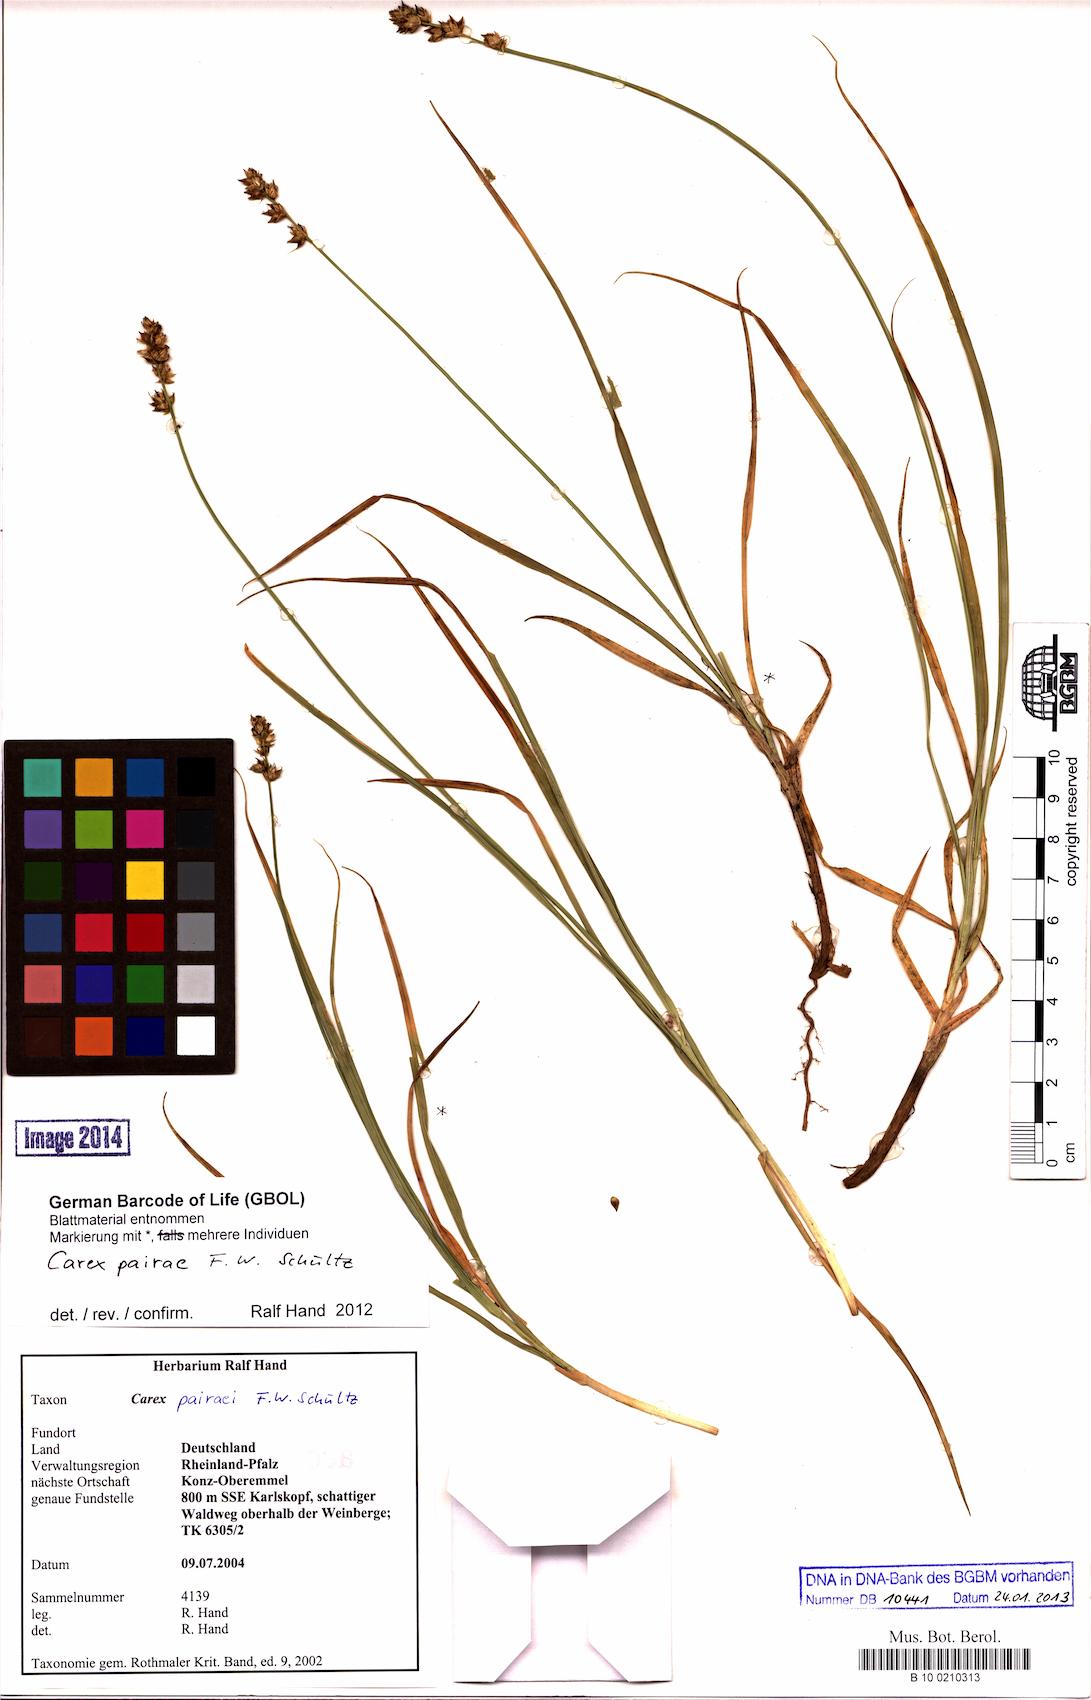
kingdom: Plantae
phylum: Tracheophyta
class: Liliopsida
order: Poales
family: Cyperaceae
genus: Carex
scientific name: Carex pairae
